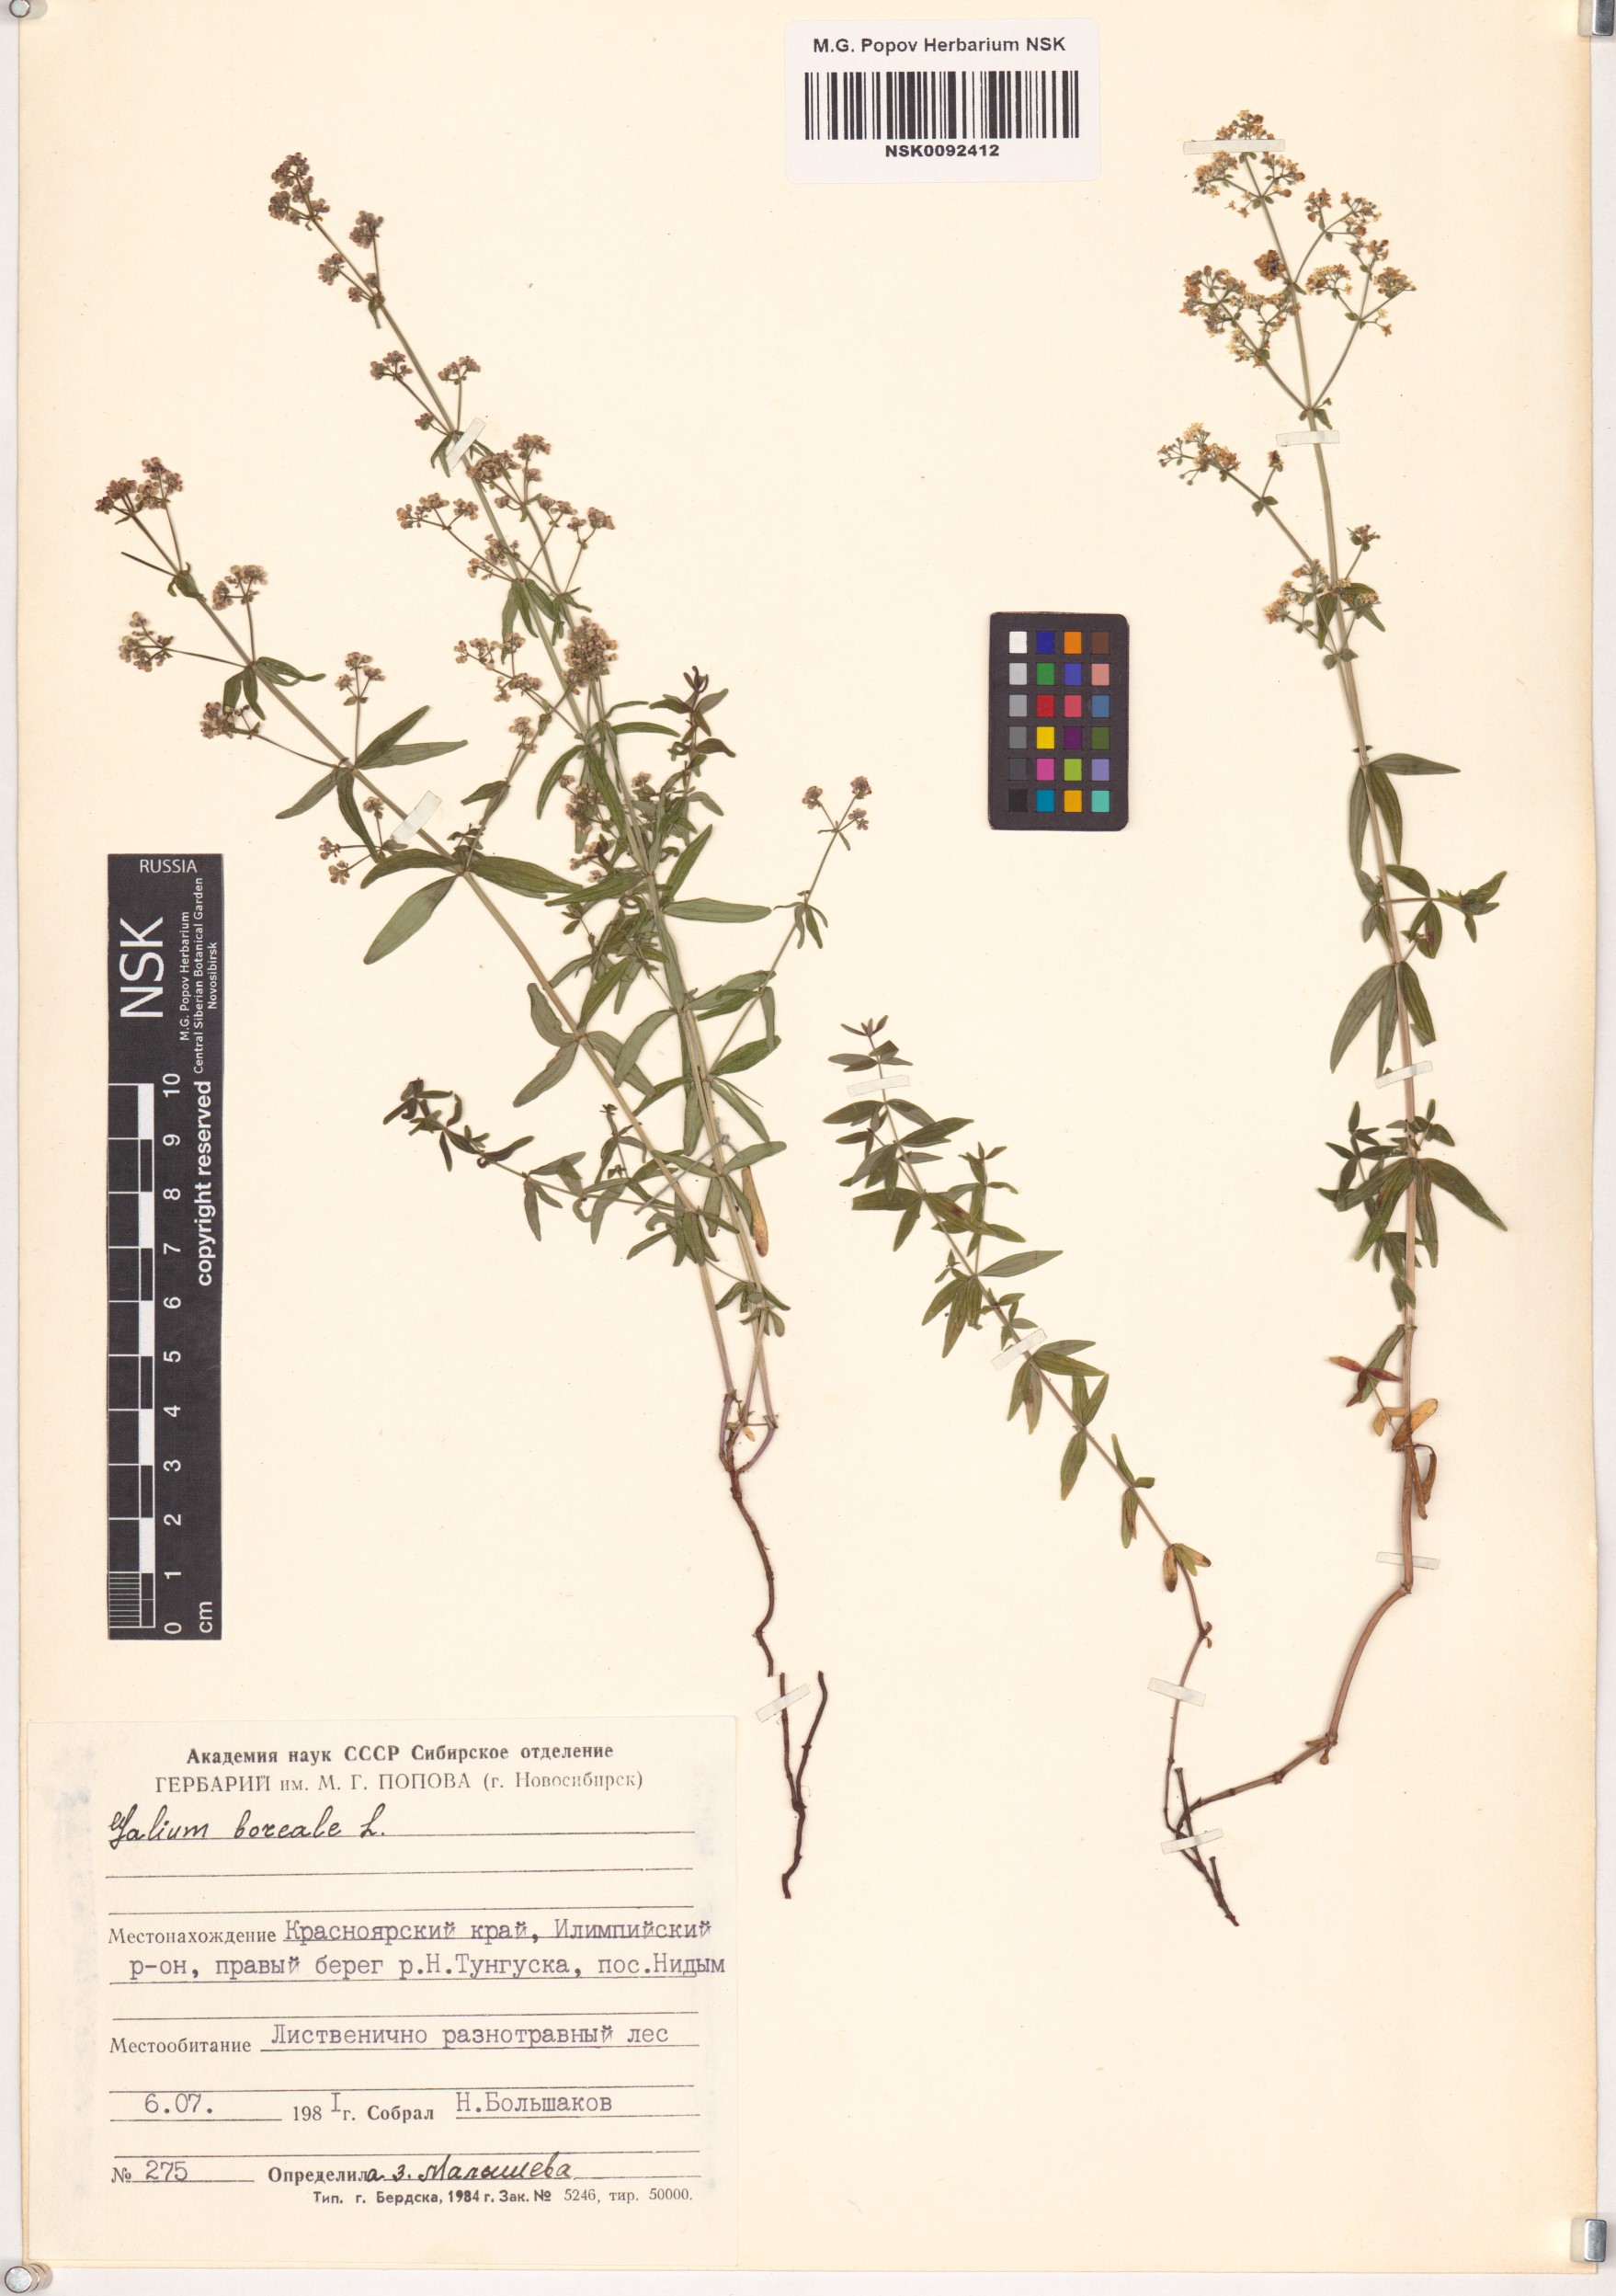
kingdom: Plantae
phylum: Tracheophyta
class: Magnoliopsida
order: Gentianales
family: Rubiaceae
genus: Galium
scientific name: Galium boreale
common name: Northern bedstraw
